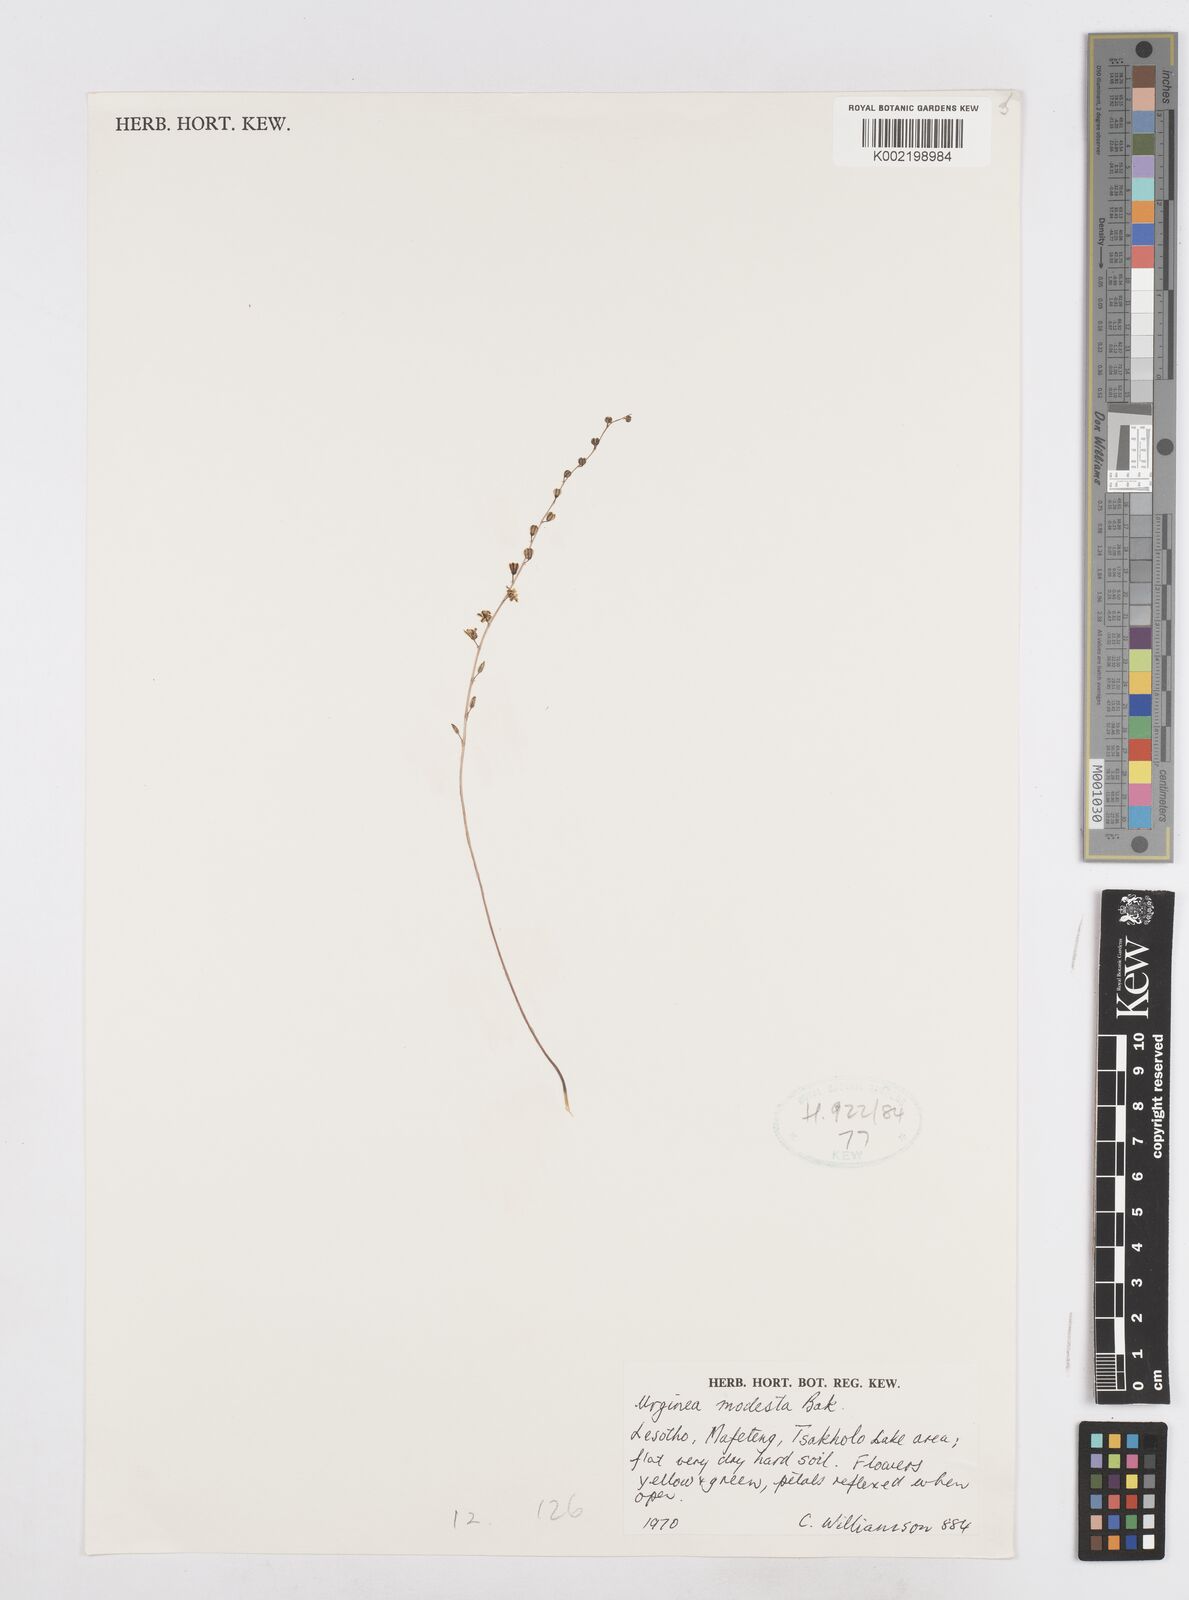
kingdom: Plantae
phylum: Tracheophyta
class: Liliopsida
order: Asparagales
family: Asparagaceae
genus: Drimia
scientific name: Drimia modesta
